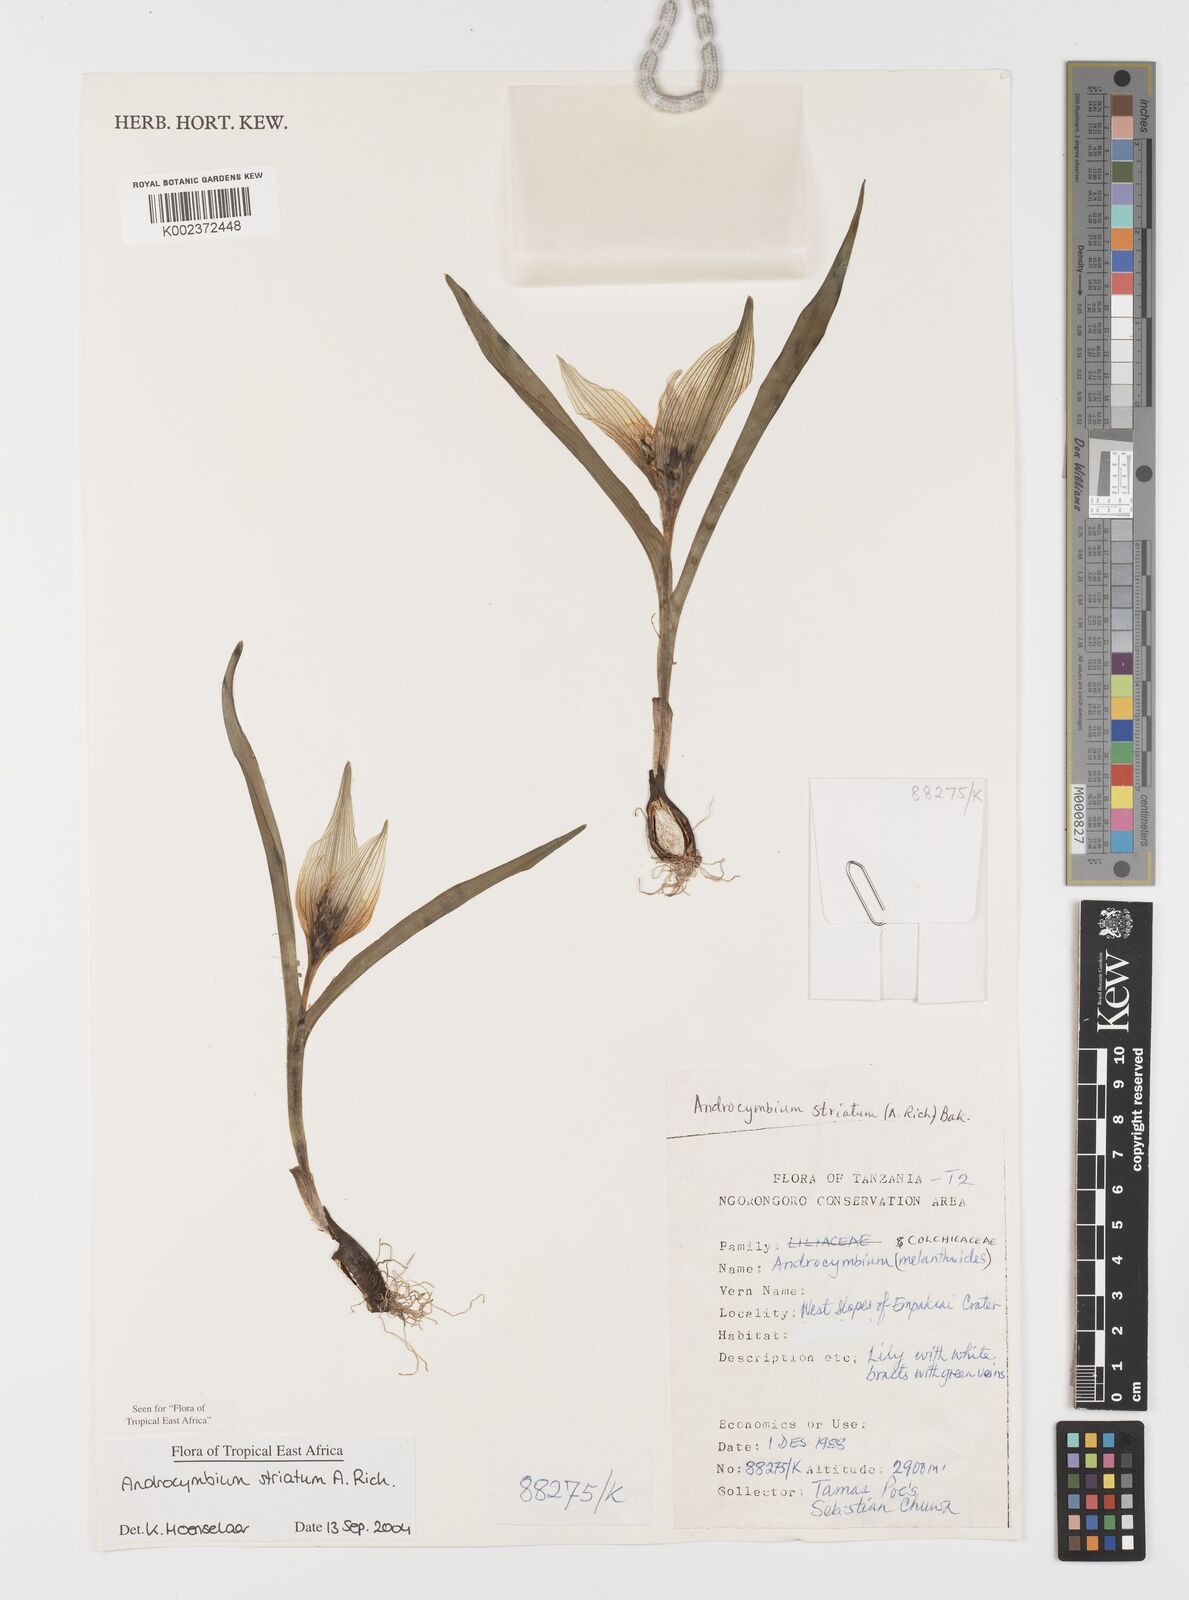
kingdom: Plantae
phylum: Tracheophyta
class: Liliopsida
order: Liliales
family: Colchicaceae
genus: Colchicum
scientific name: Colchicum striatum
